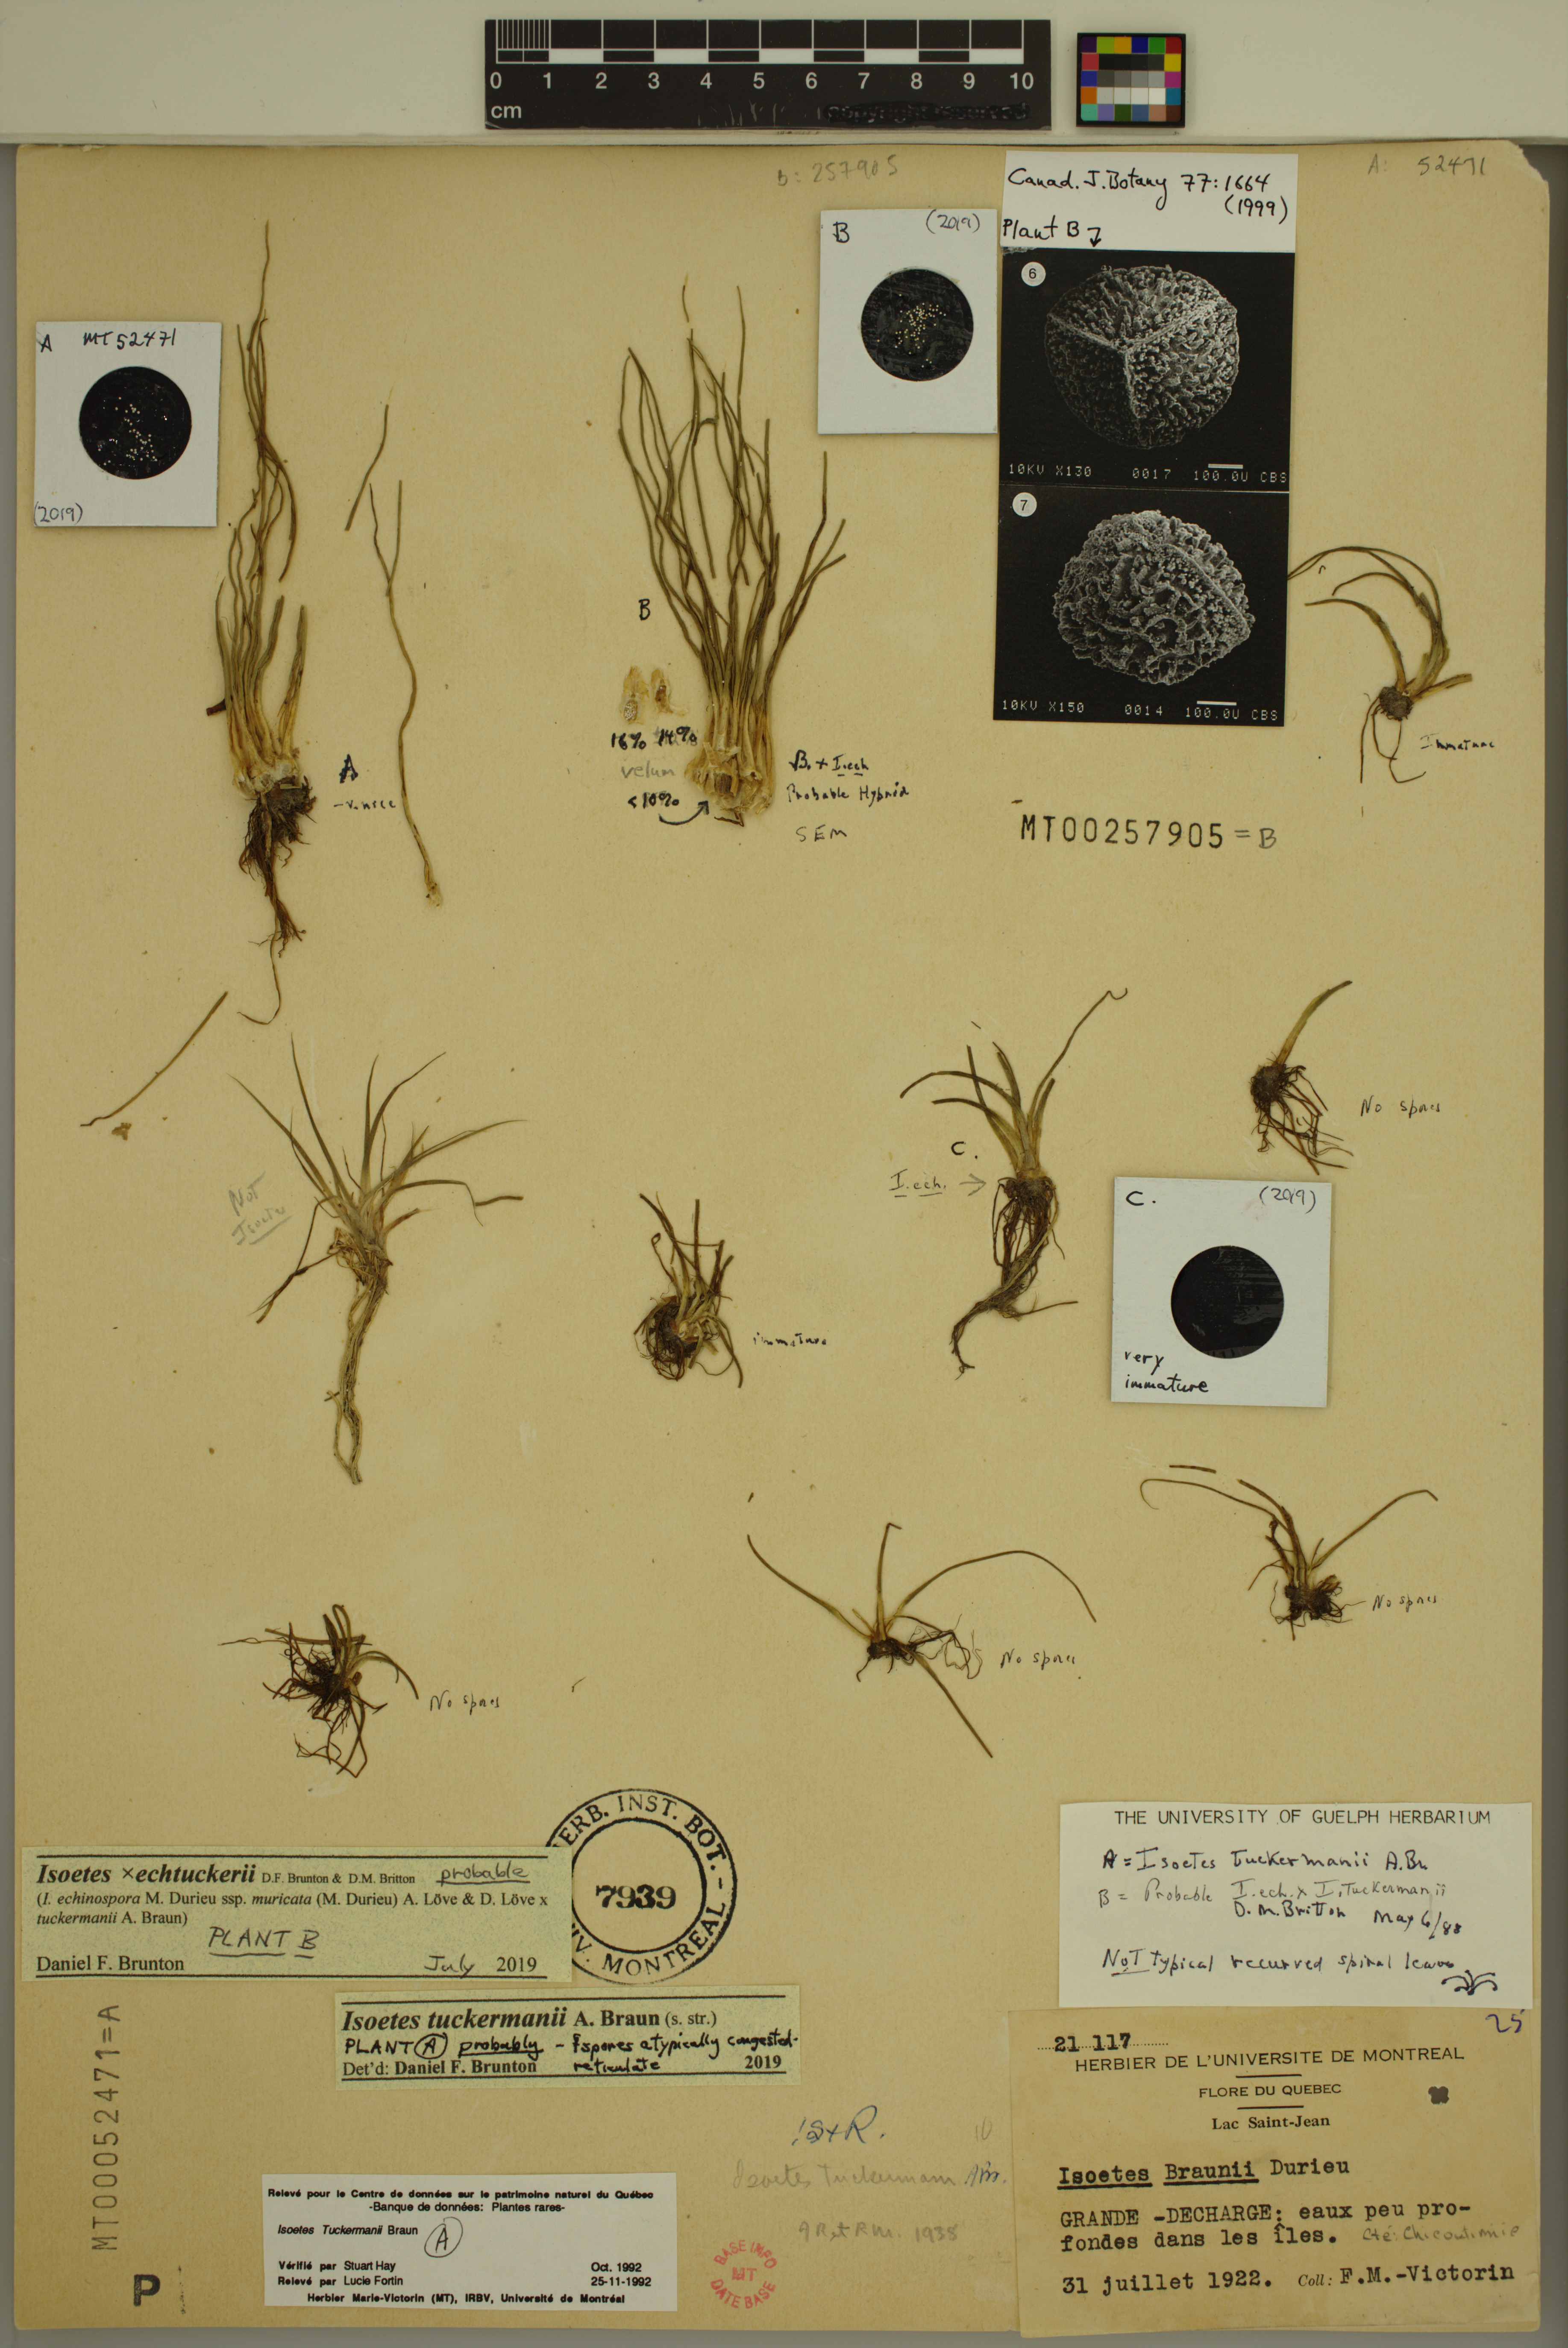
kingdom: Plantae
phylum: Tracheophyta
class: Lycopodiopsida
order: Isoetales
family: Isoetaceae
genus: Isoetes
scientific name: Isoetes echtuckeri
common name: Hybrid quillwort
